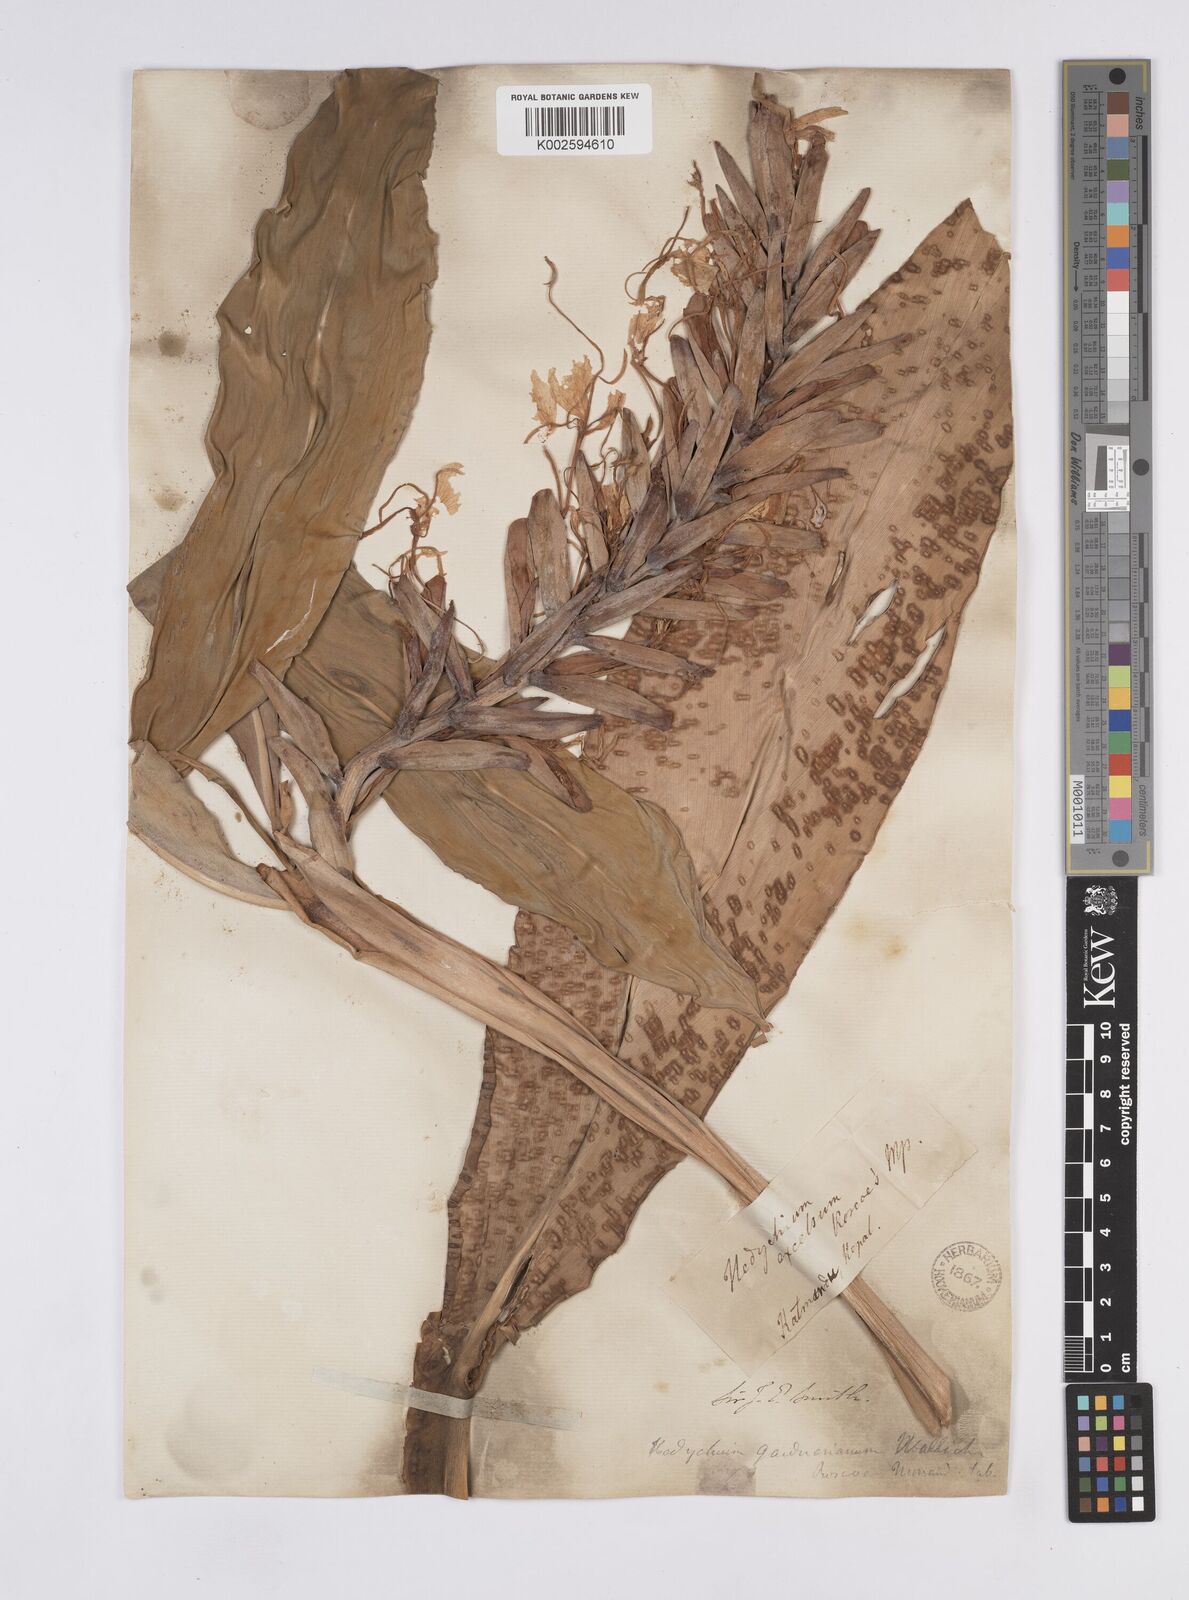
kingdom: Plantae
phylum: Tracheophyta
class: Liliopsida
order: Zingiberales
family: Zingiberaceae
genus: Hedychium
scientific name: Hedychium gardnerianum
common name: Himalayan ginger
